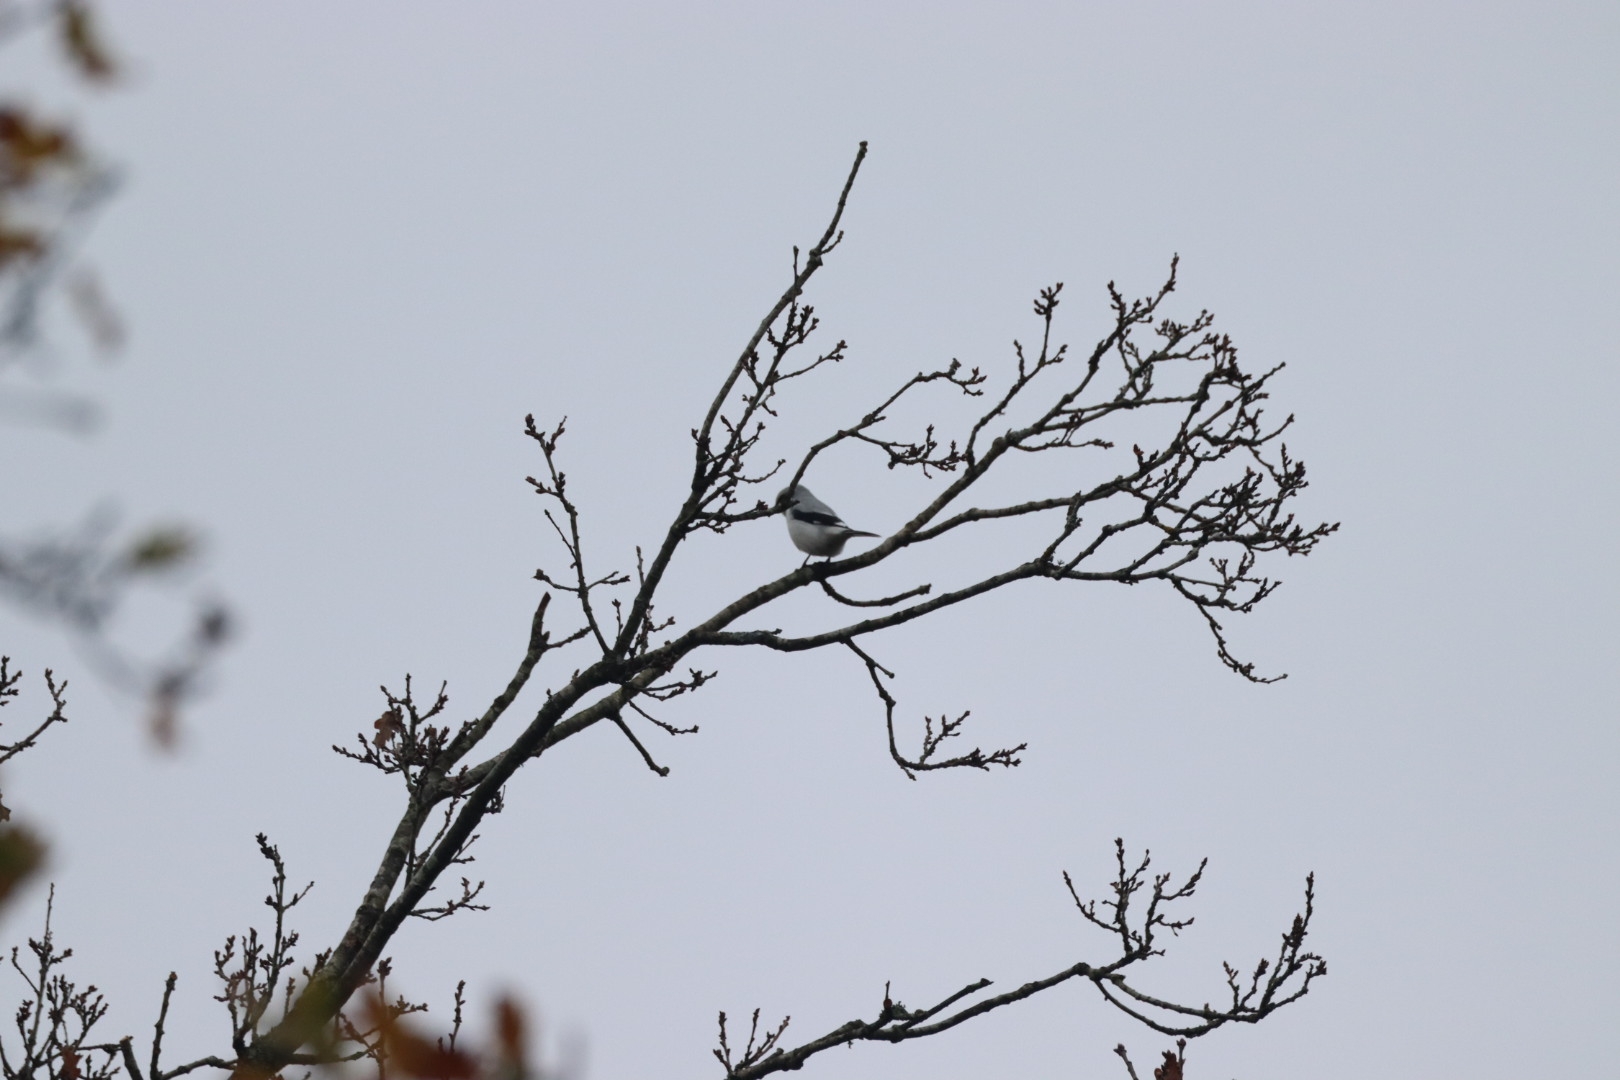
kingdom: Animalia
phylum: Chordata
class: Aves
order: Passeriformes
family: Laniidae
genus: Lanius
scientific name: Lanius excubitor
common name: Stor tornskade
